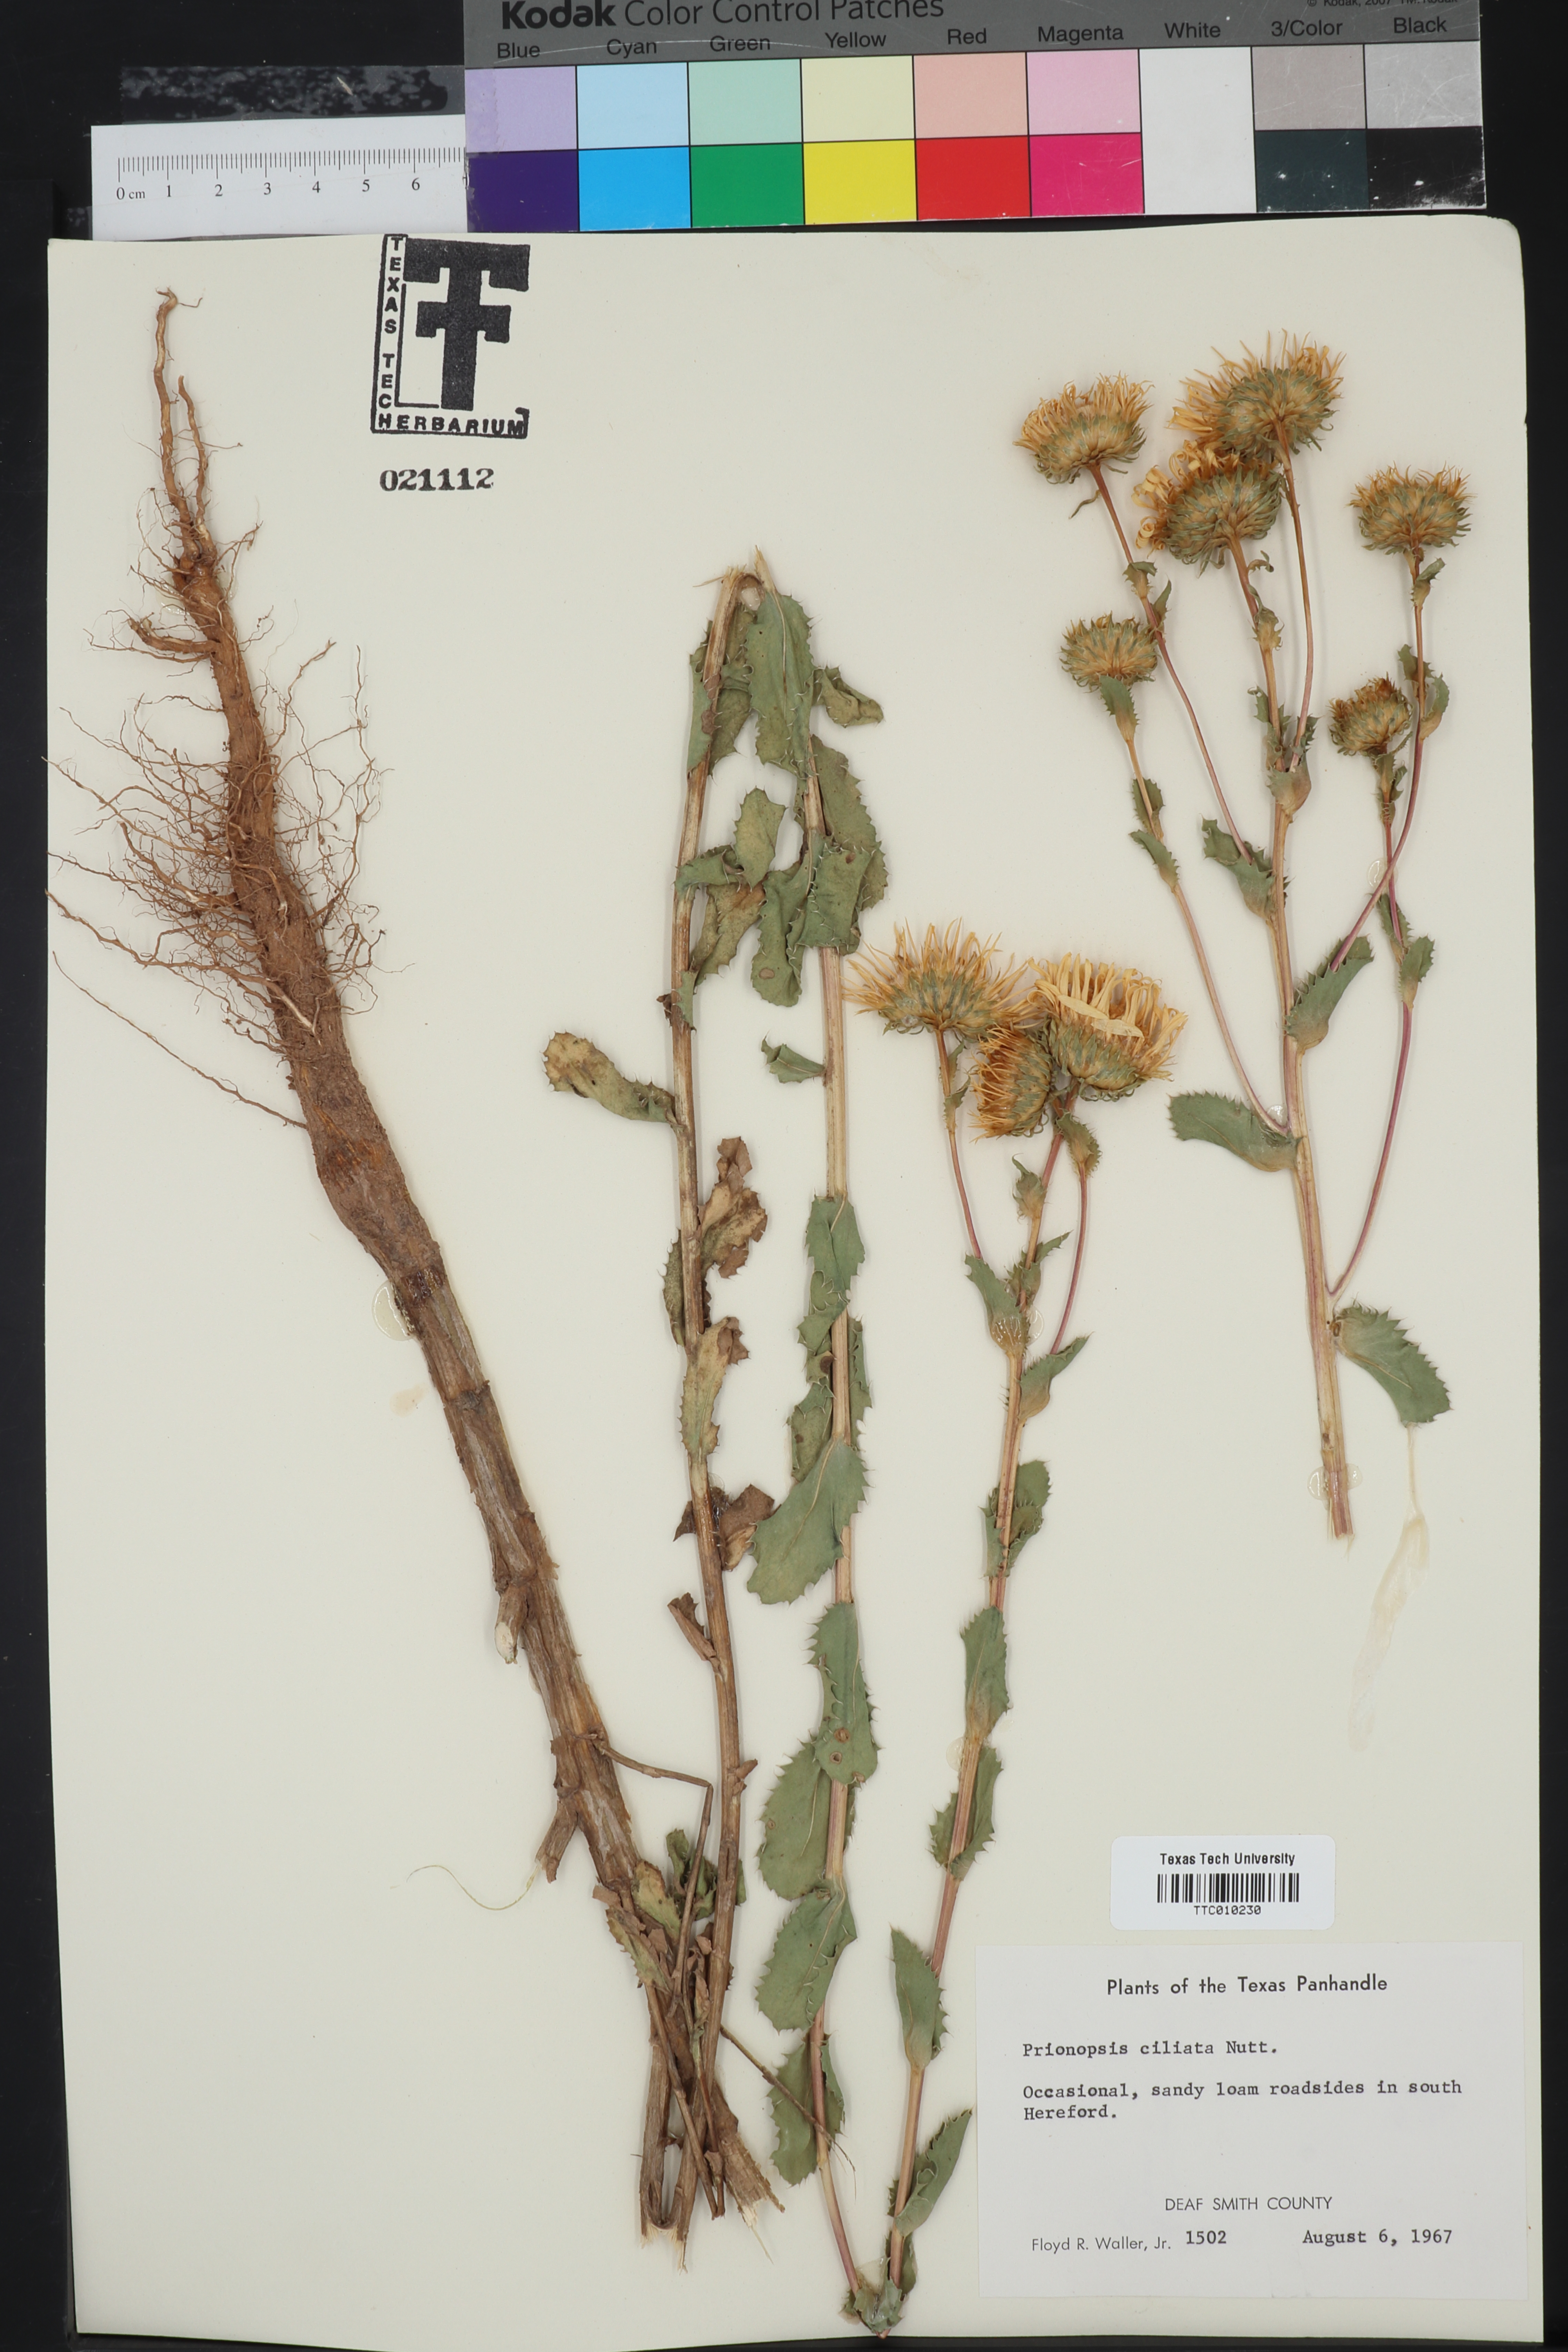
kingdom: Plantae
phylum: Tracheophyta
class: Magnoliopsida
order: Asterales
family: Asteraceae
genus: Grindelia
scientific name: Grindelia ciliata
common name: Goldenweed
